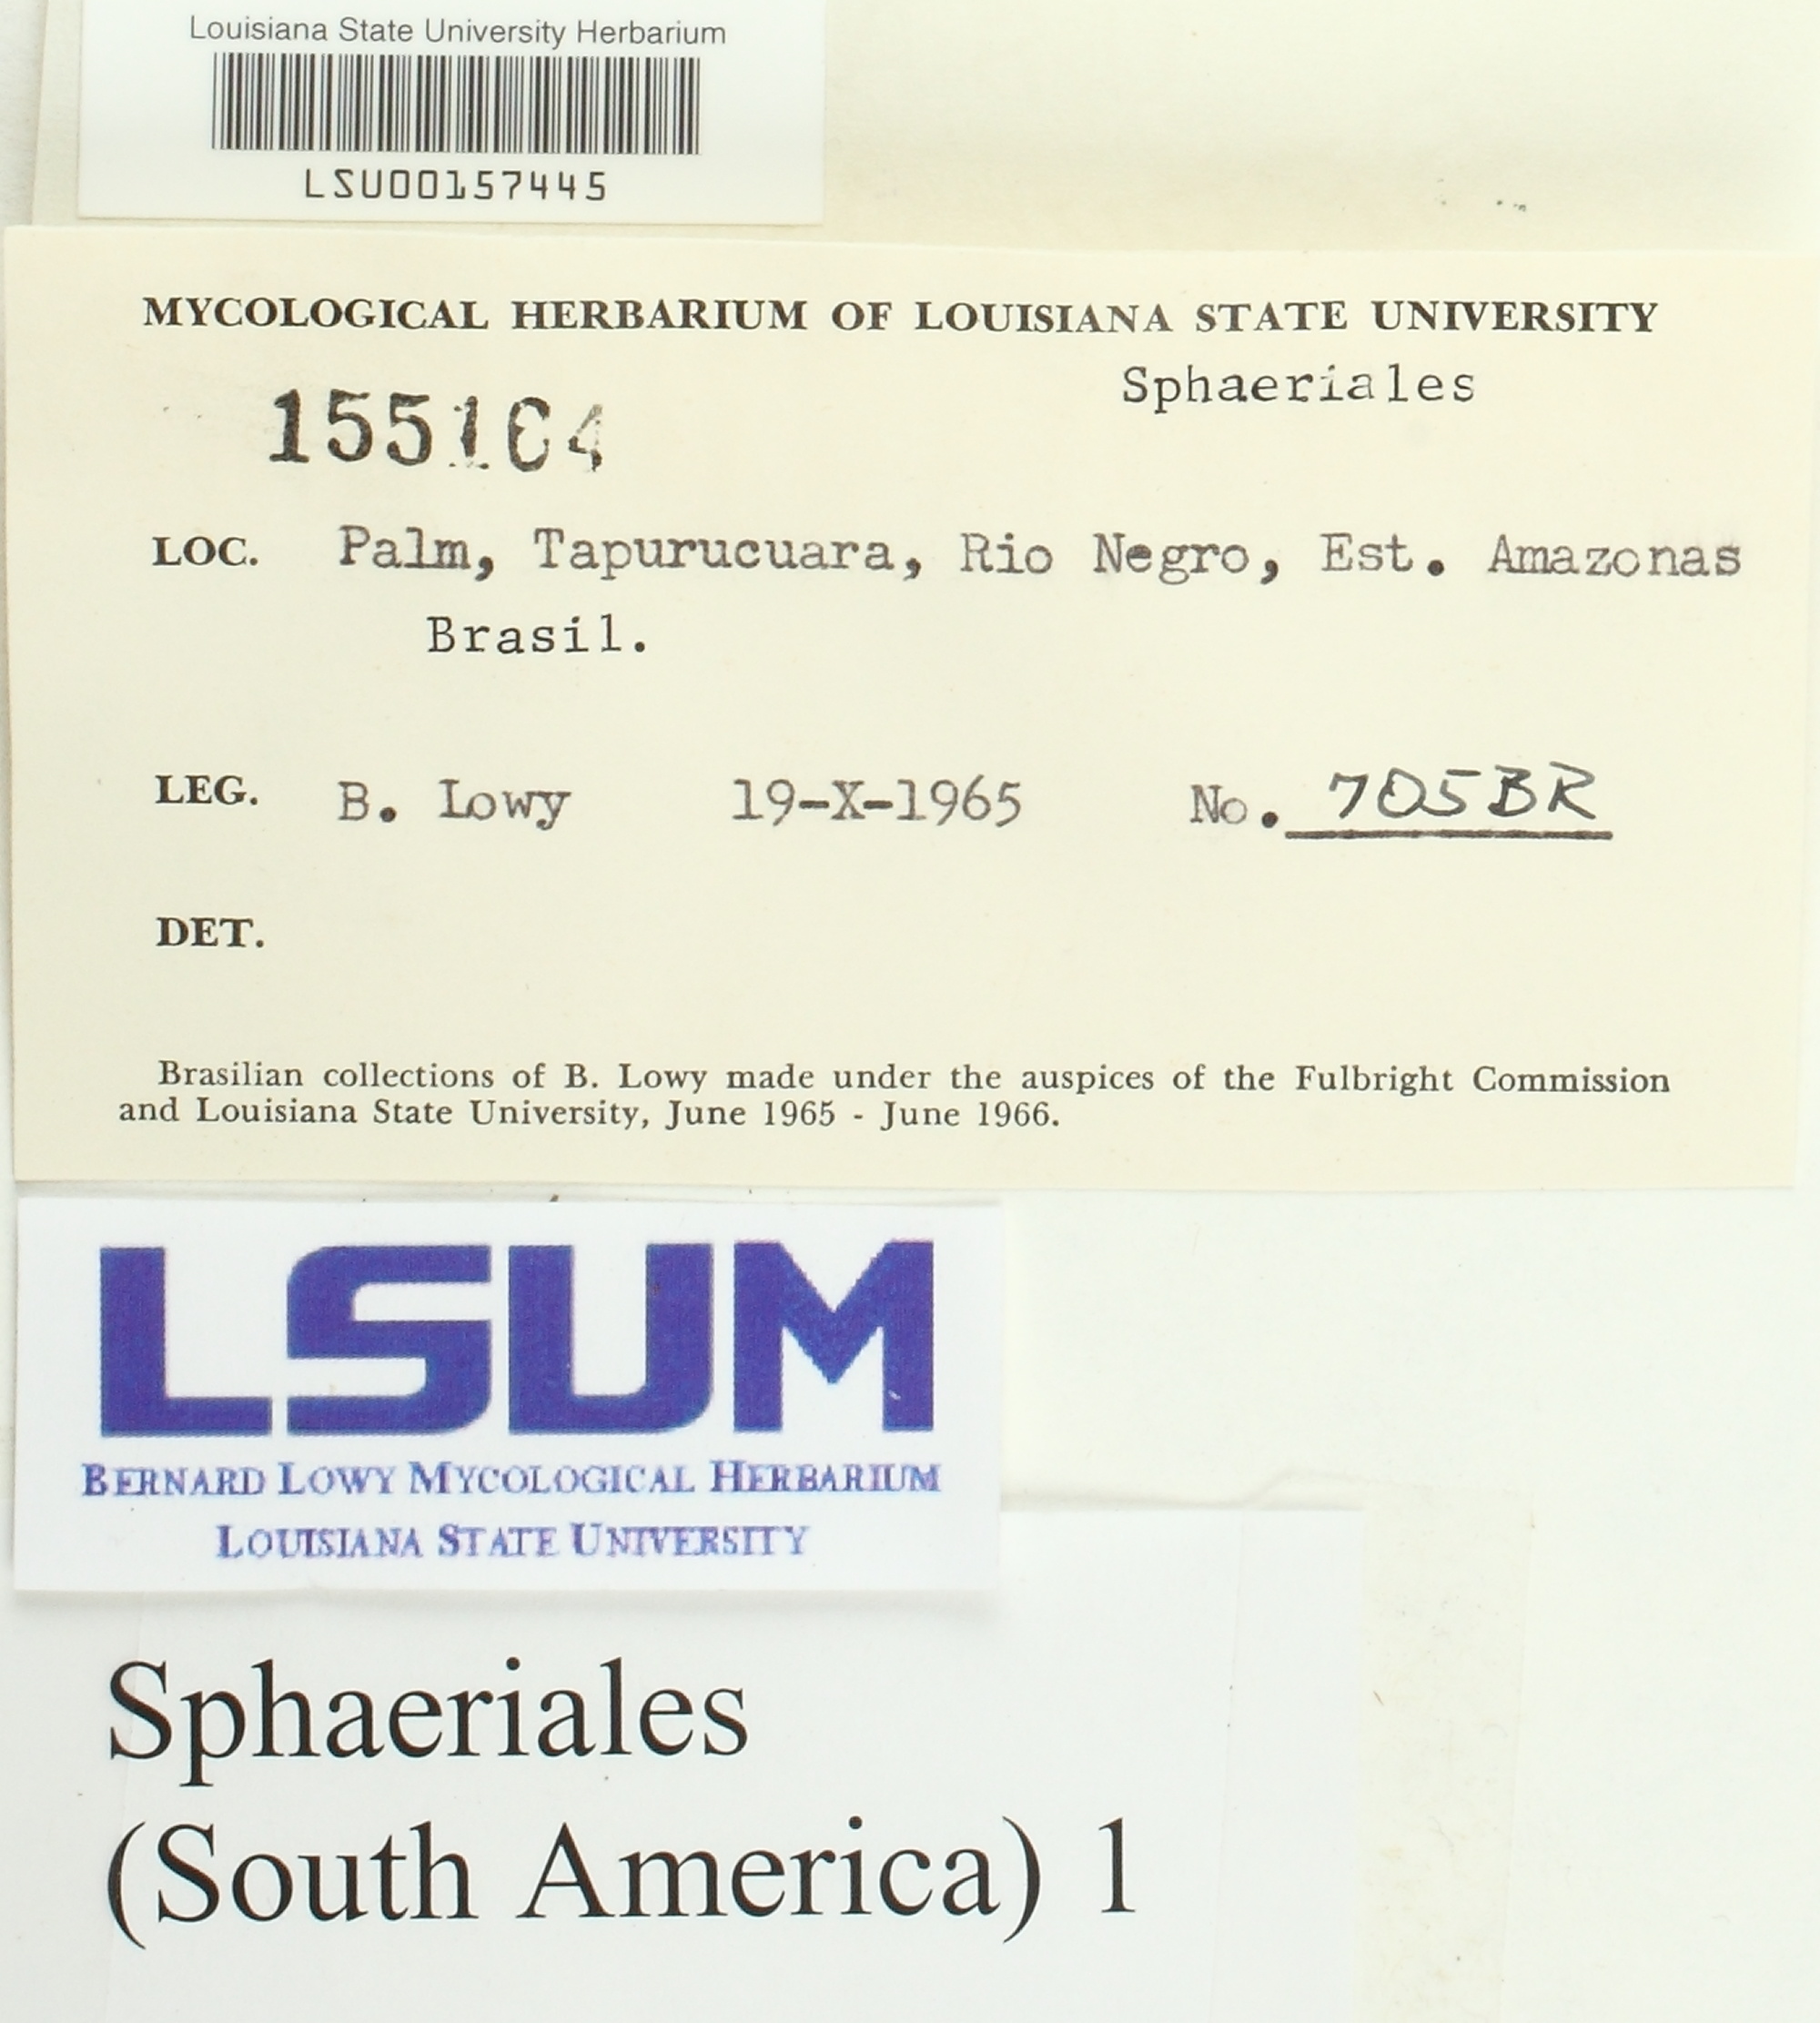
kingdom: Fungi
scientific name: Fungi
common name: Fungi
